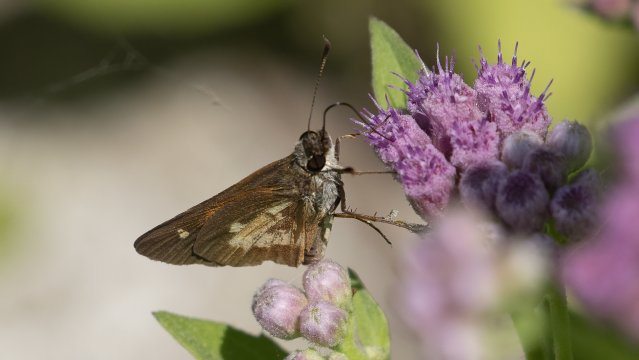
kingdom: Animalia
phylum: Arthropoda
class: Insecta
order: Lepidoptera
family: Hesperiidae
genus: Poanes
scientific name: Poanes massasoit
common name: Mulberry Wing
